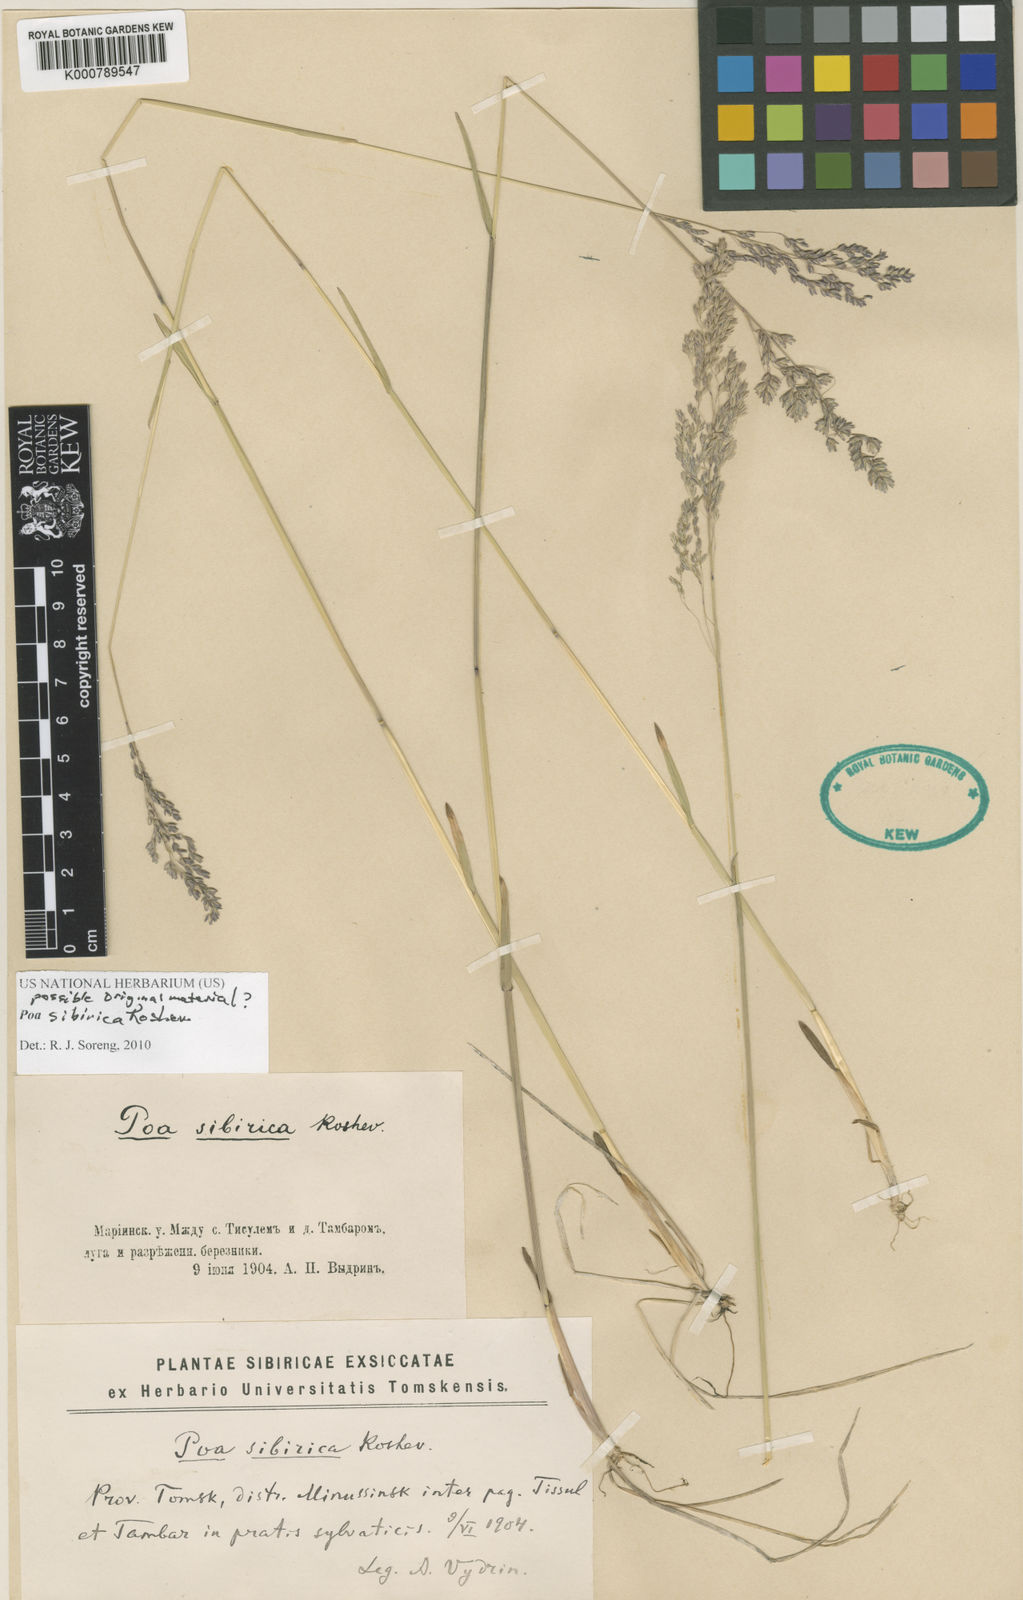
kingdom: Plantae
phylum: Tracheophyta
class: Liliopsida
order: Poales
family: Poaceae
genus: Poa
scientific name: Poa sibirica
